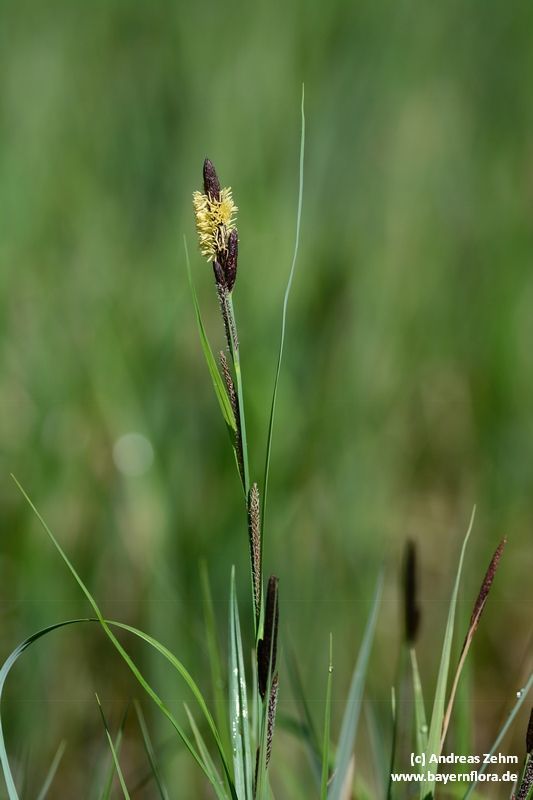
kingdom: Plantae
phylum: Tracheophyta
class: Liliopsida
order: Poales
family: Cyperaceae
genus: Carex
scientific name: Carex acuta
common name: Slender tufted-sedge
